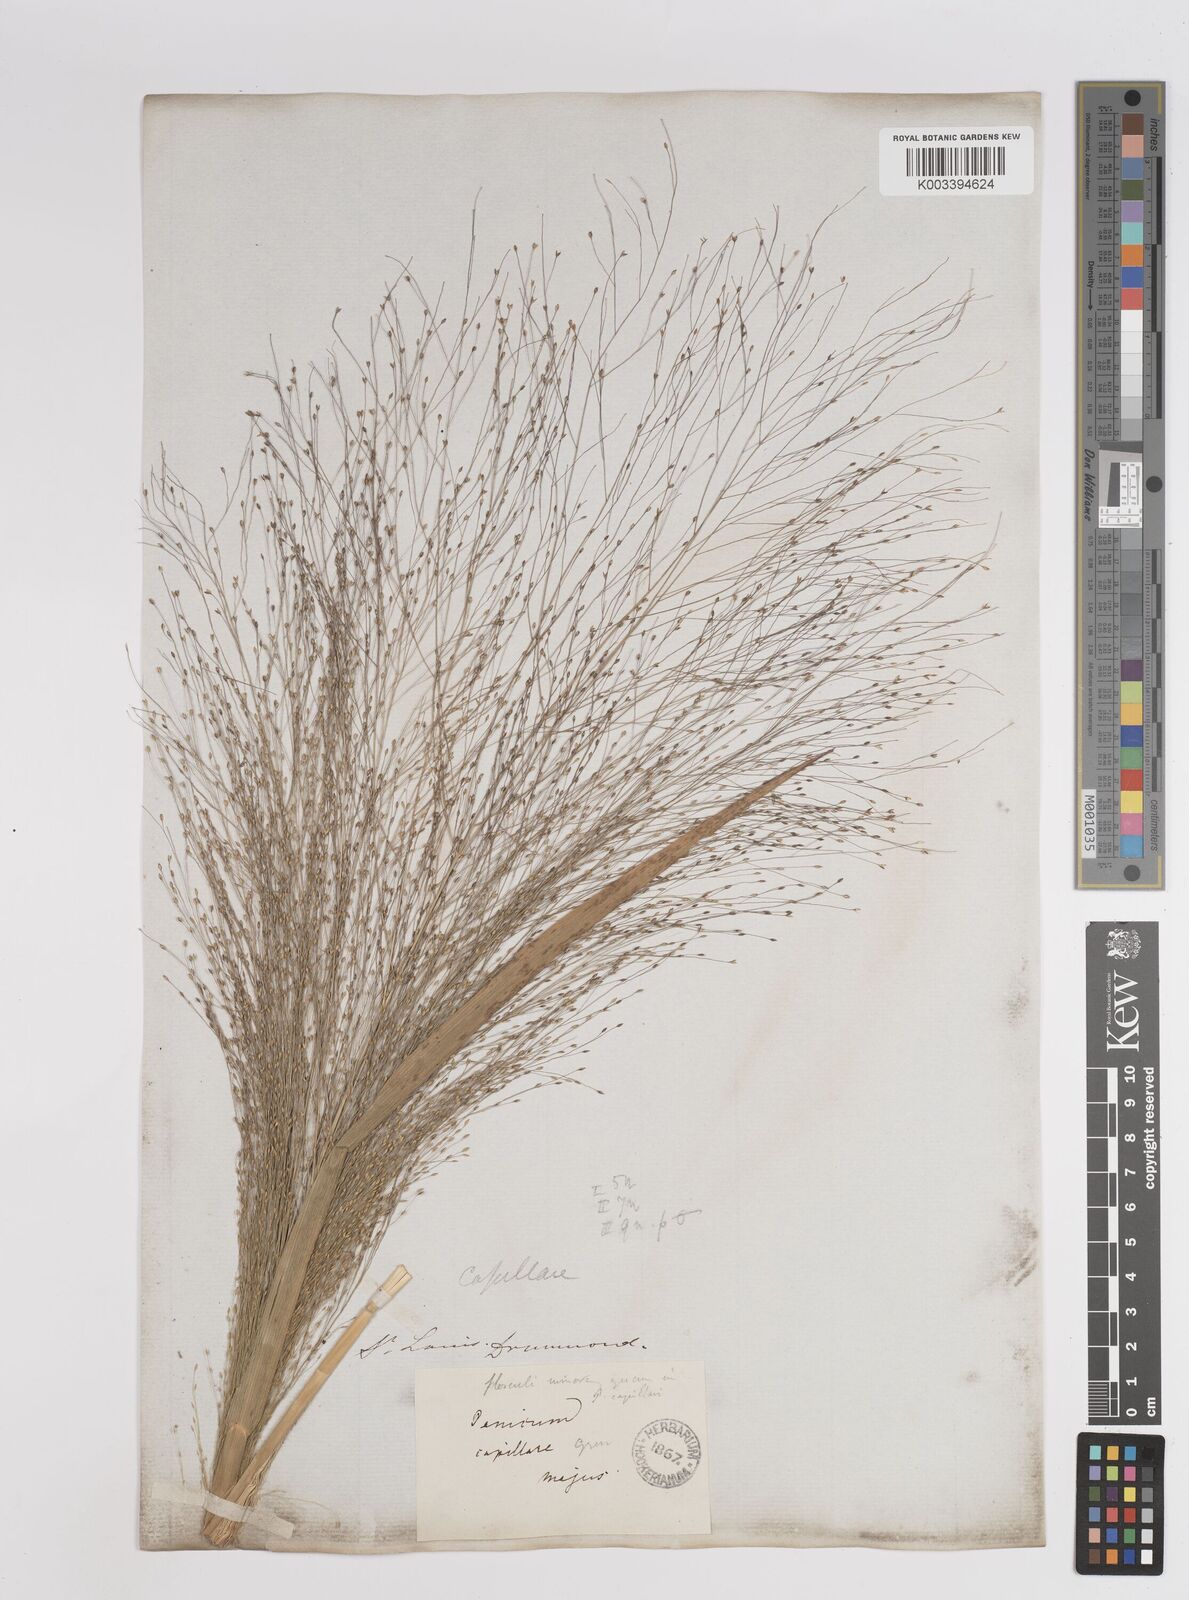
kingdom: Plantae
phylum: Tracheophyta
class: Liliopsida
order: Poales
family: Poaceae
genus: Panicum
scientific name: Panicum capillare
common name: Witch-grass
